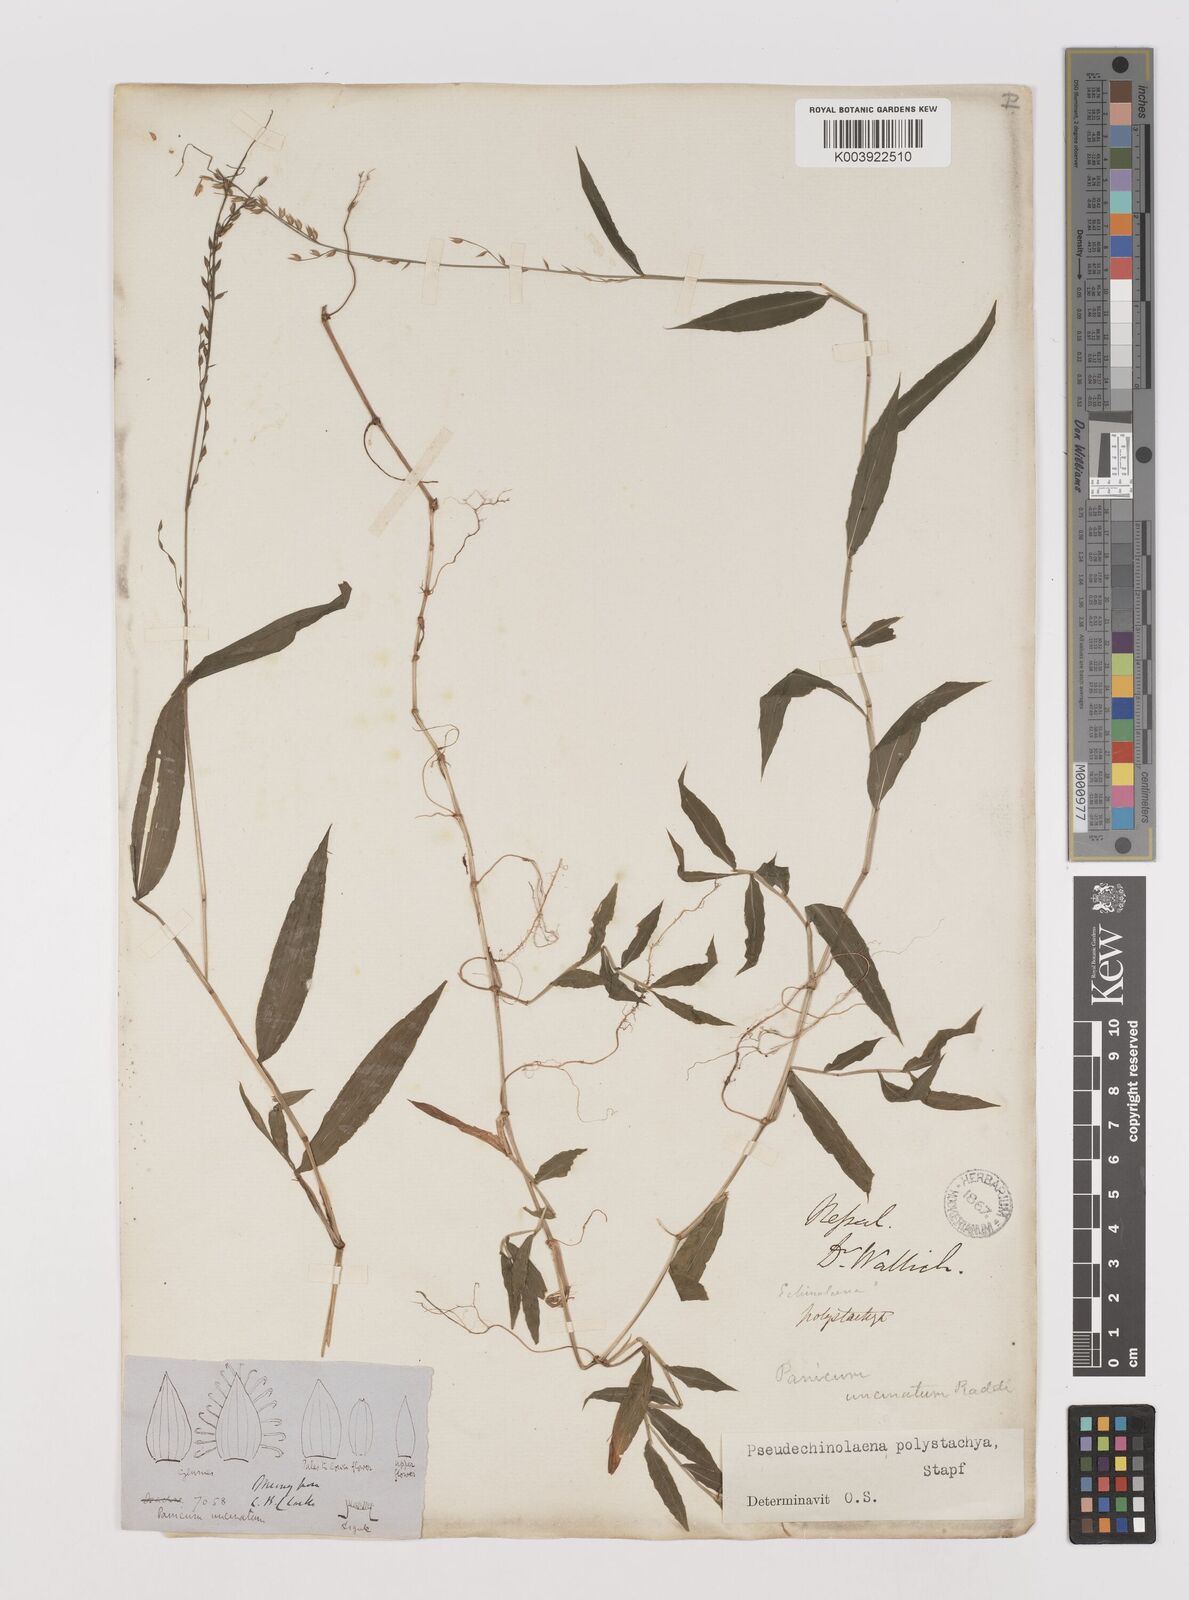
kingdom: Plantae
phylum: Tracheophyta
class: Liliopsida
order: Poales
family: Poaceae
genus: Pseudechinolaena
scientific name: Pseudechinolaena polystachya
